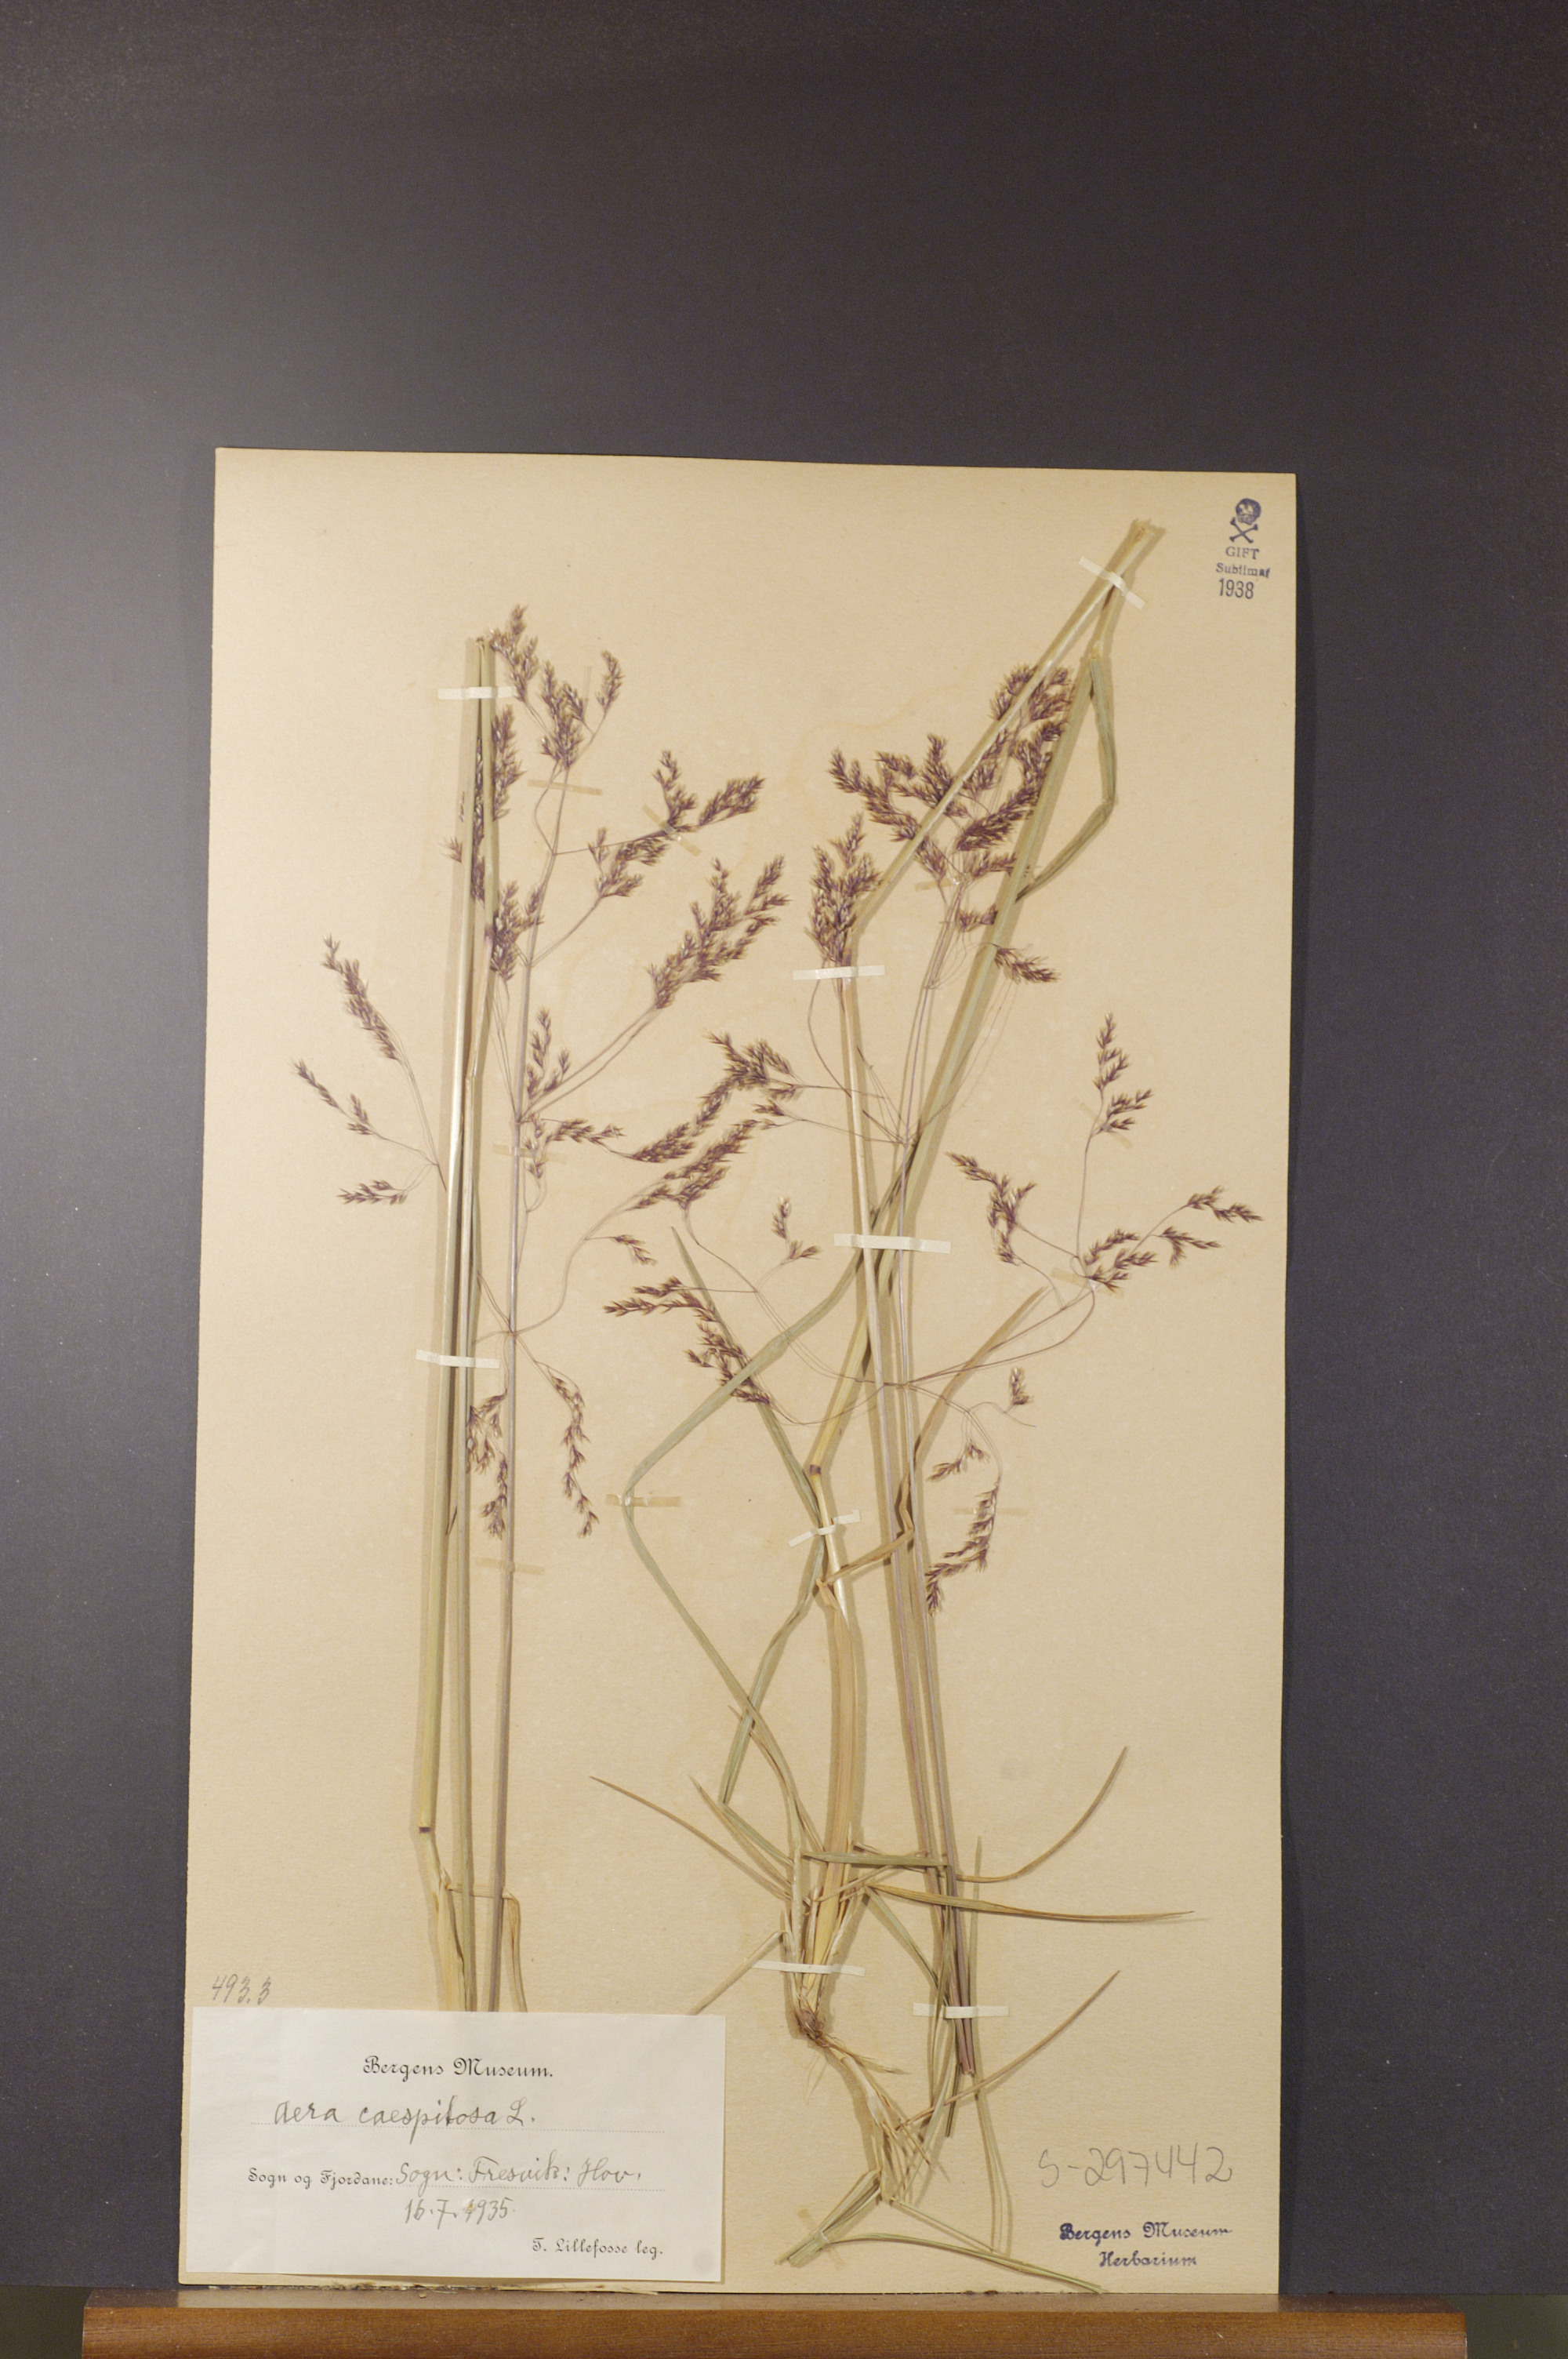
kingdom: Plantae
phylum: Tracheophyta
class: Liliopsida
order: Poales
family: Poaceae
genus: Deschampsia
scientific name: Deschampsia cespitosa
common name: Tufted hair-grass
